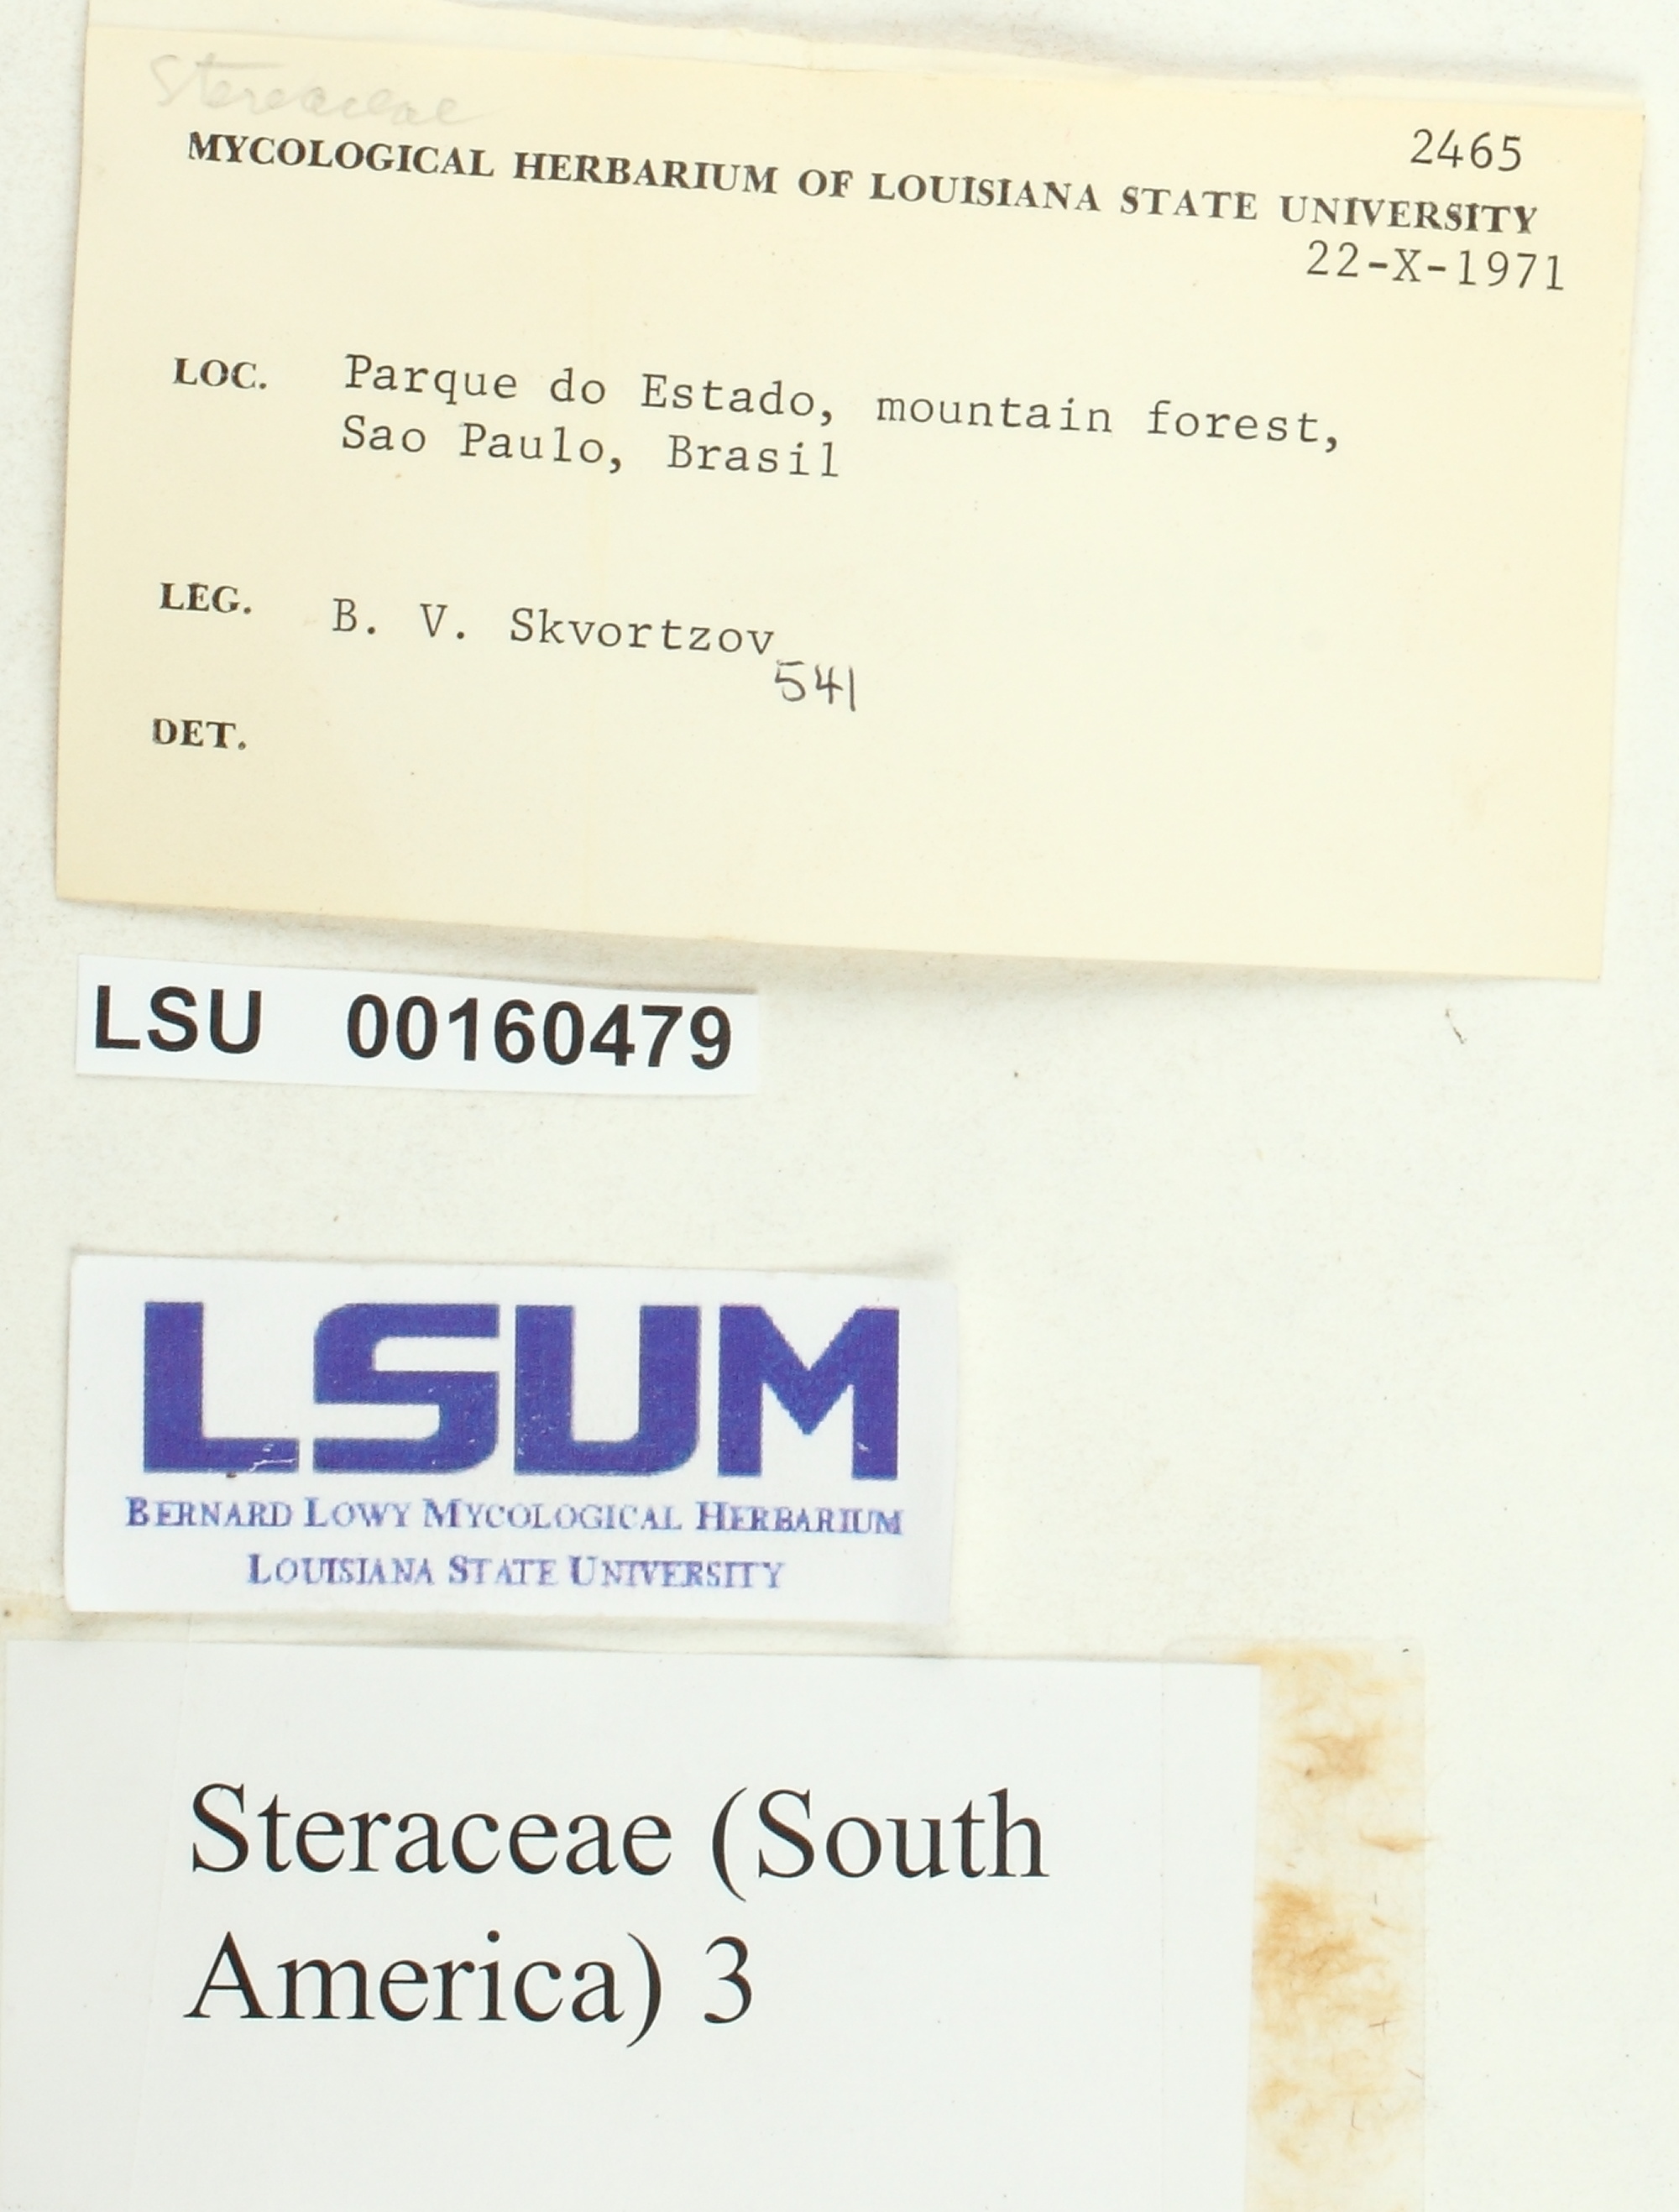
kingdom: Fungi
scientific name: Fungi
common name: Fungi
